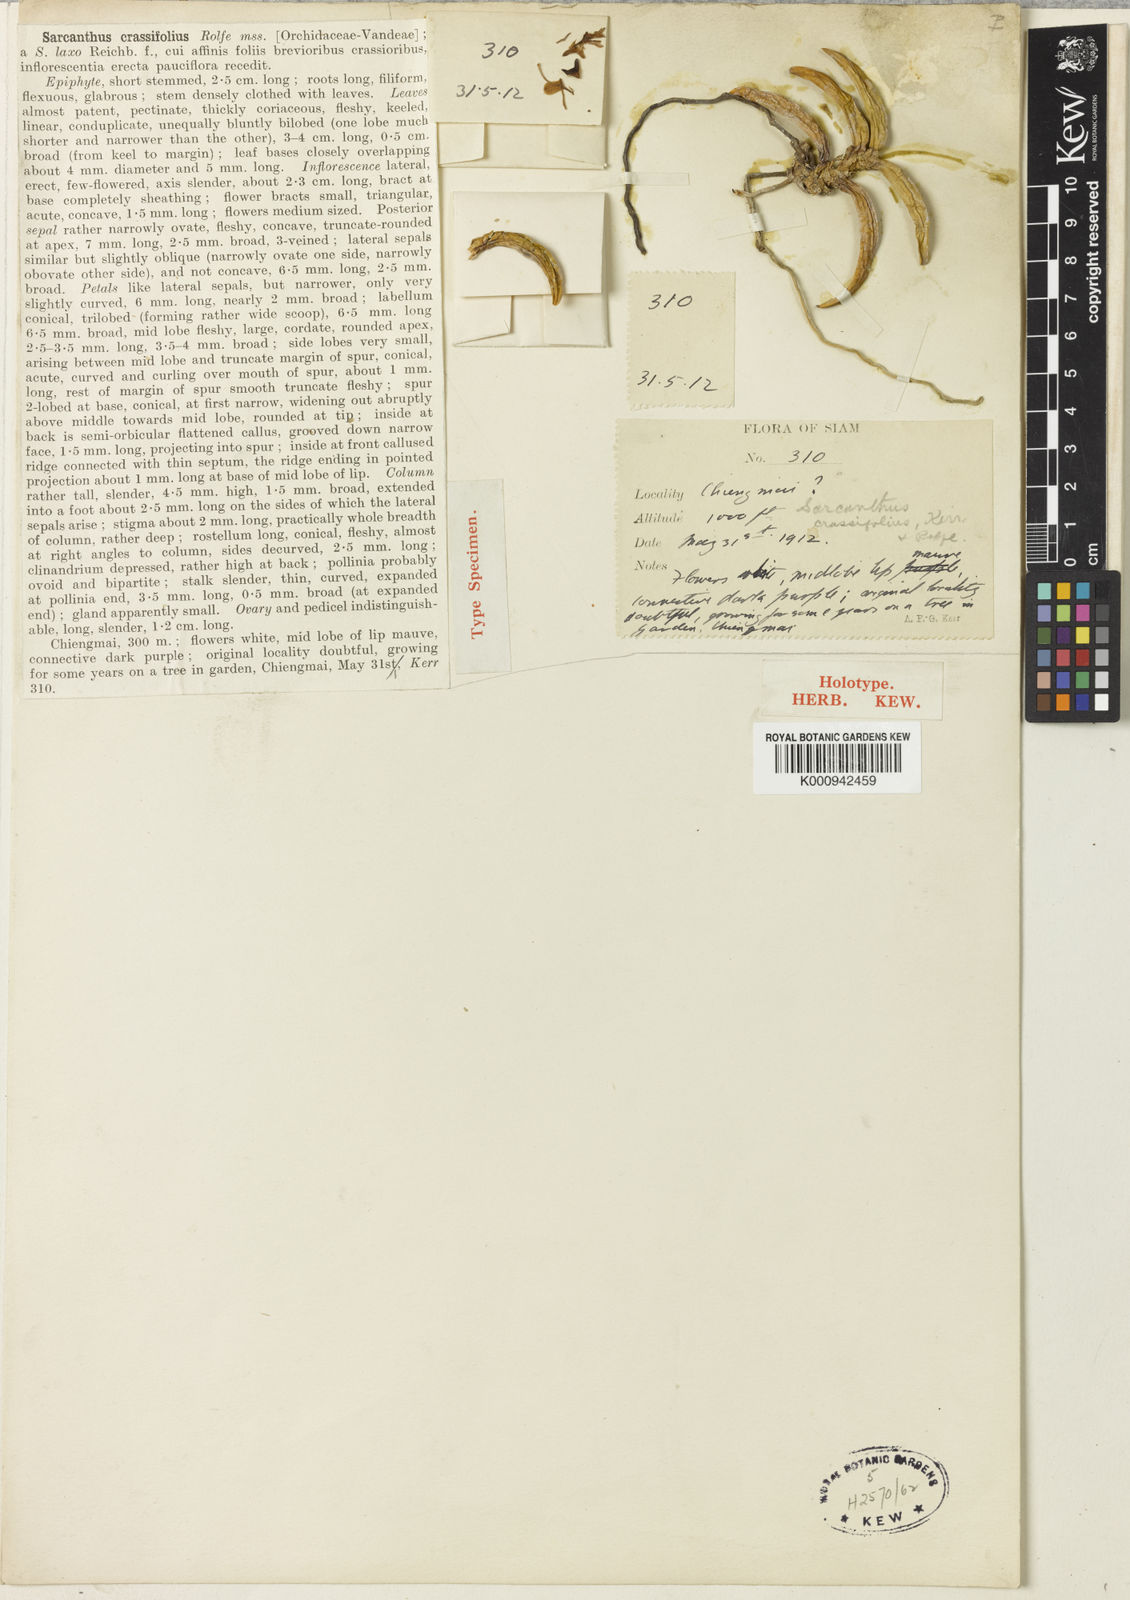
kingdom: Plantae
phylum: Tracheophyta
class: Liliopsida
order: Asparagales
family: Orchidaceae
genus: Stereochilus
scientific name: Stereochilus dalatensis
